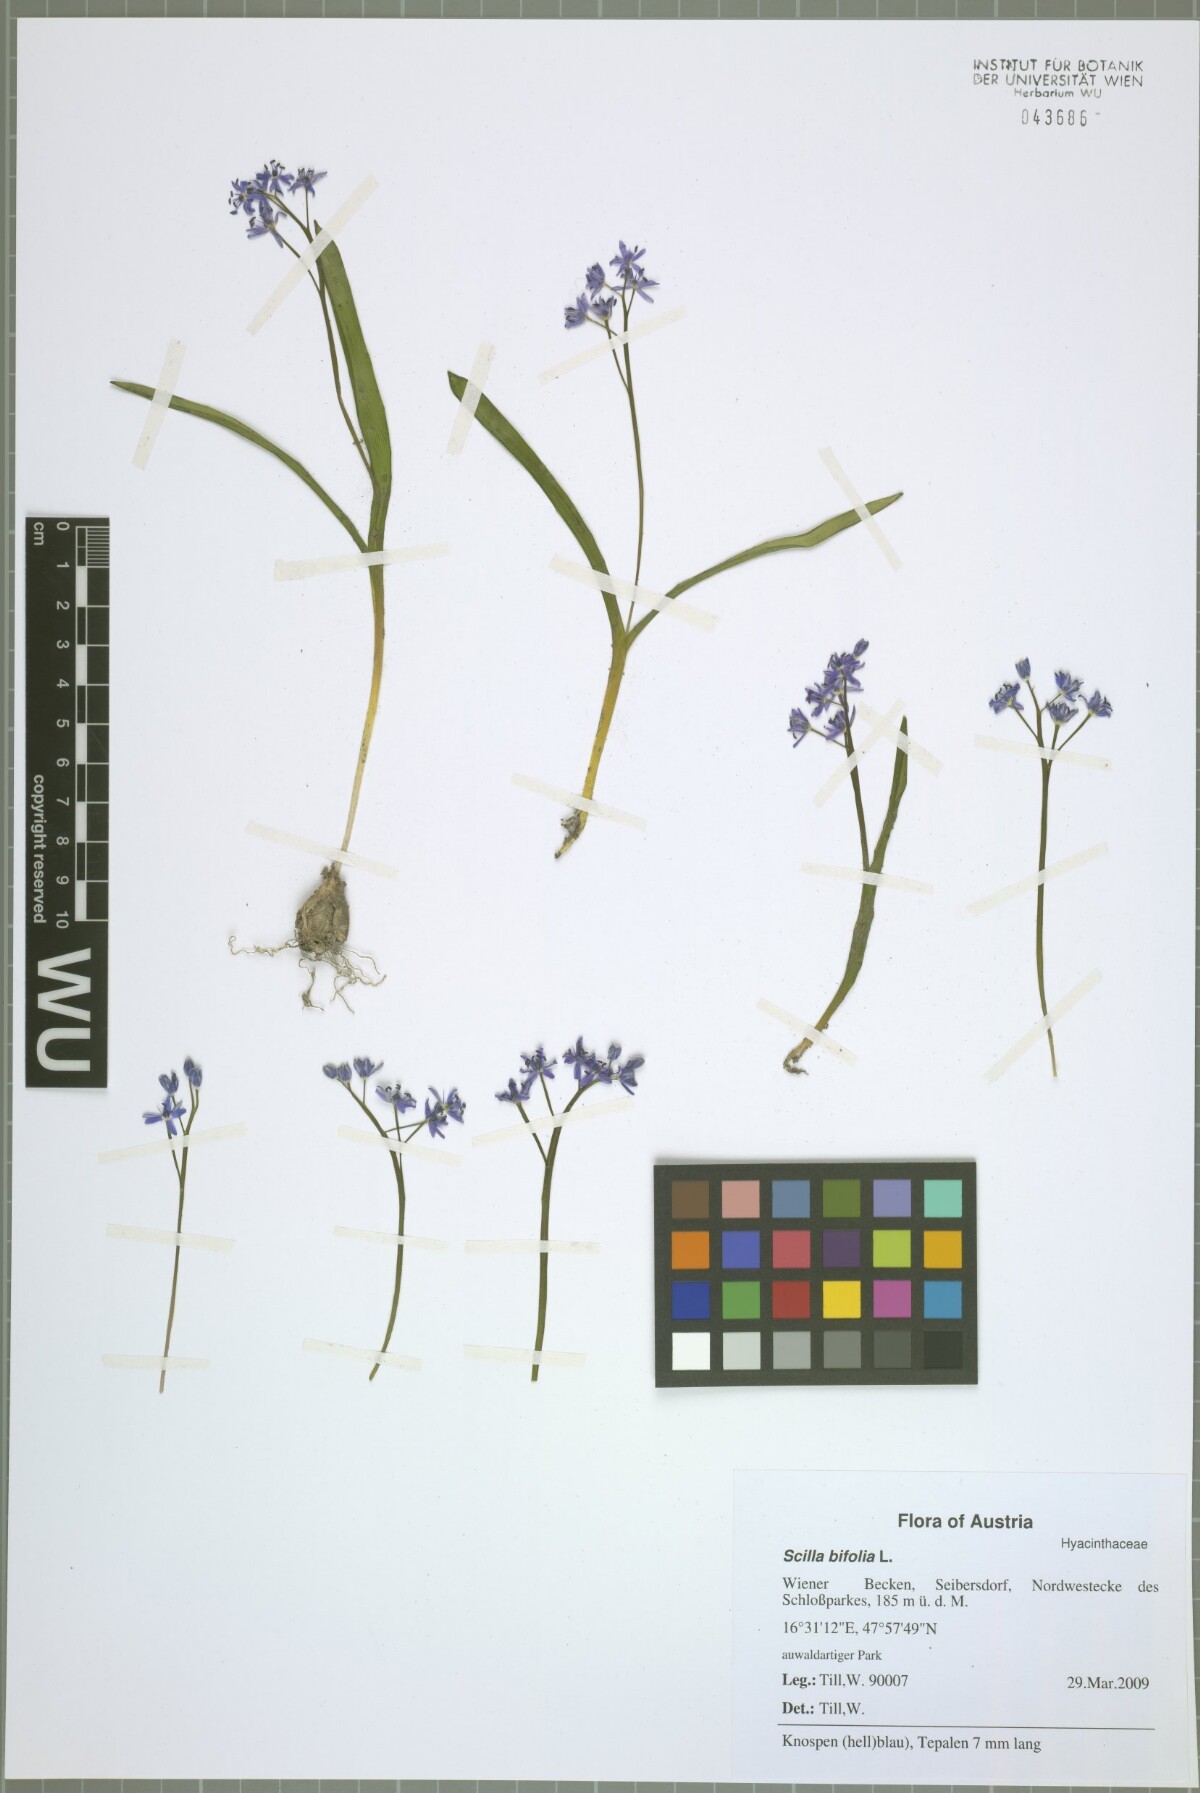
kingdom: Plantae
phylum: Tracheophyta
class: Liliopsida
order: Asparagales
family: Asparagaceae
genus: Scilla
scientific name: Scilla vindobonensis
